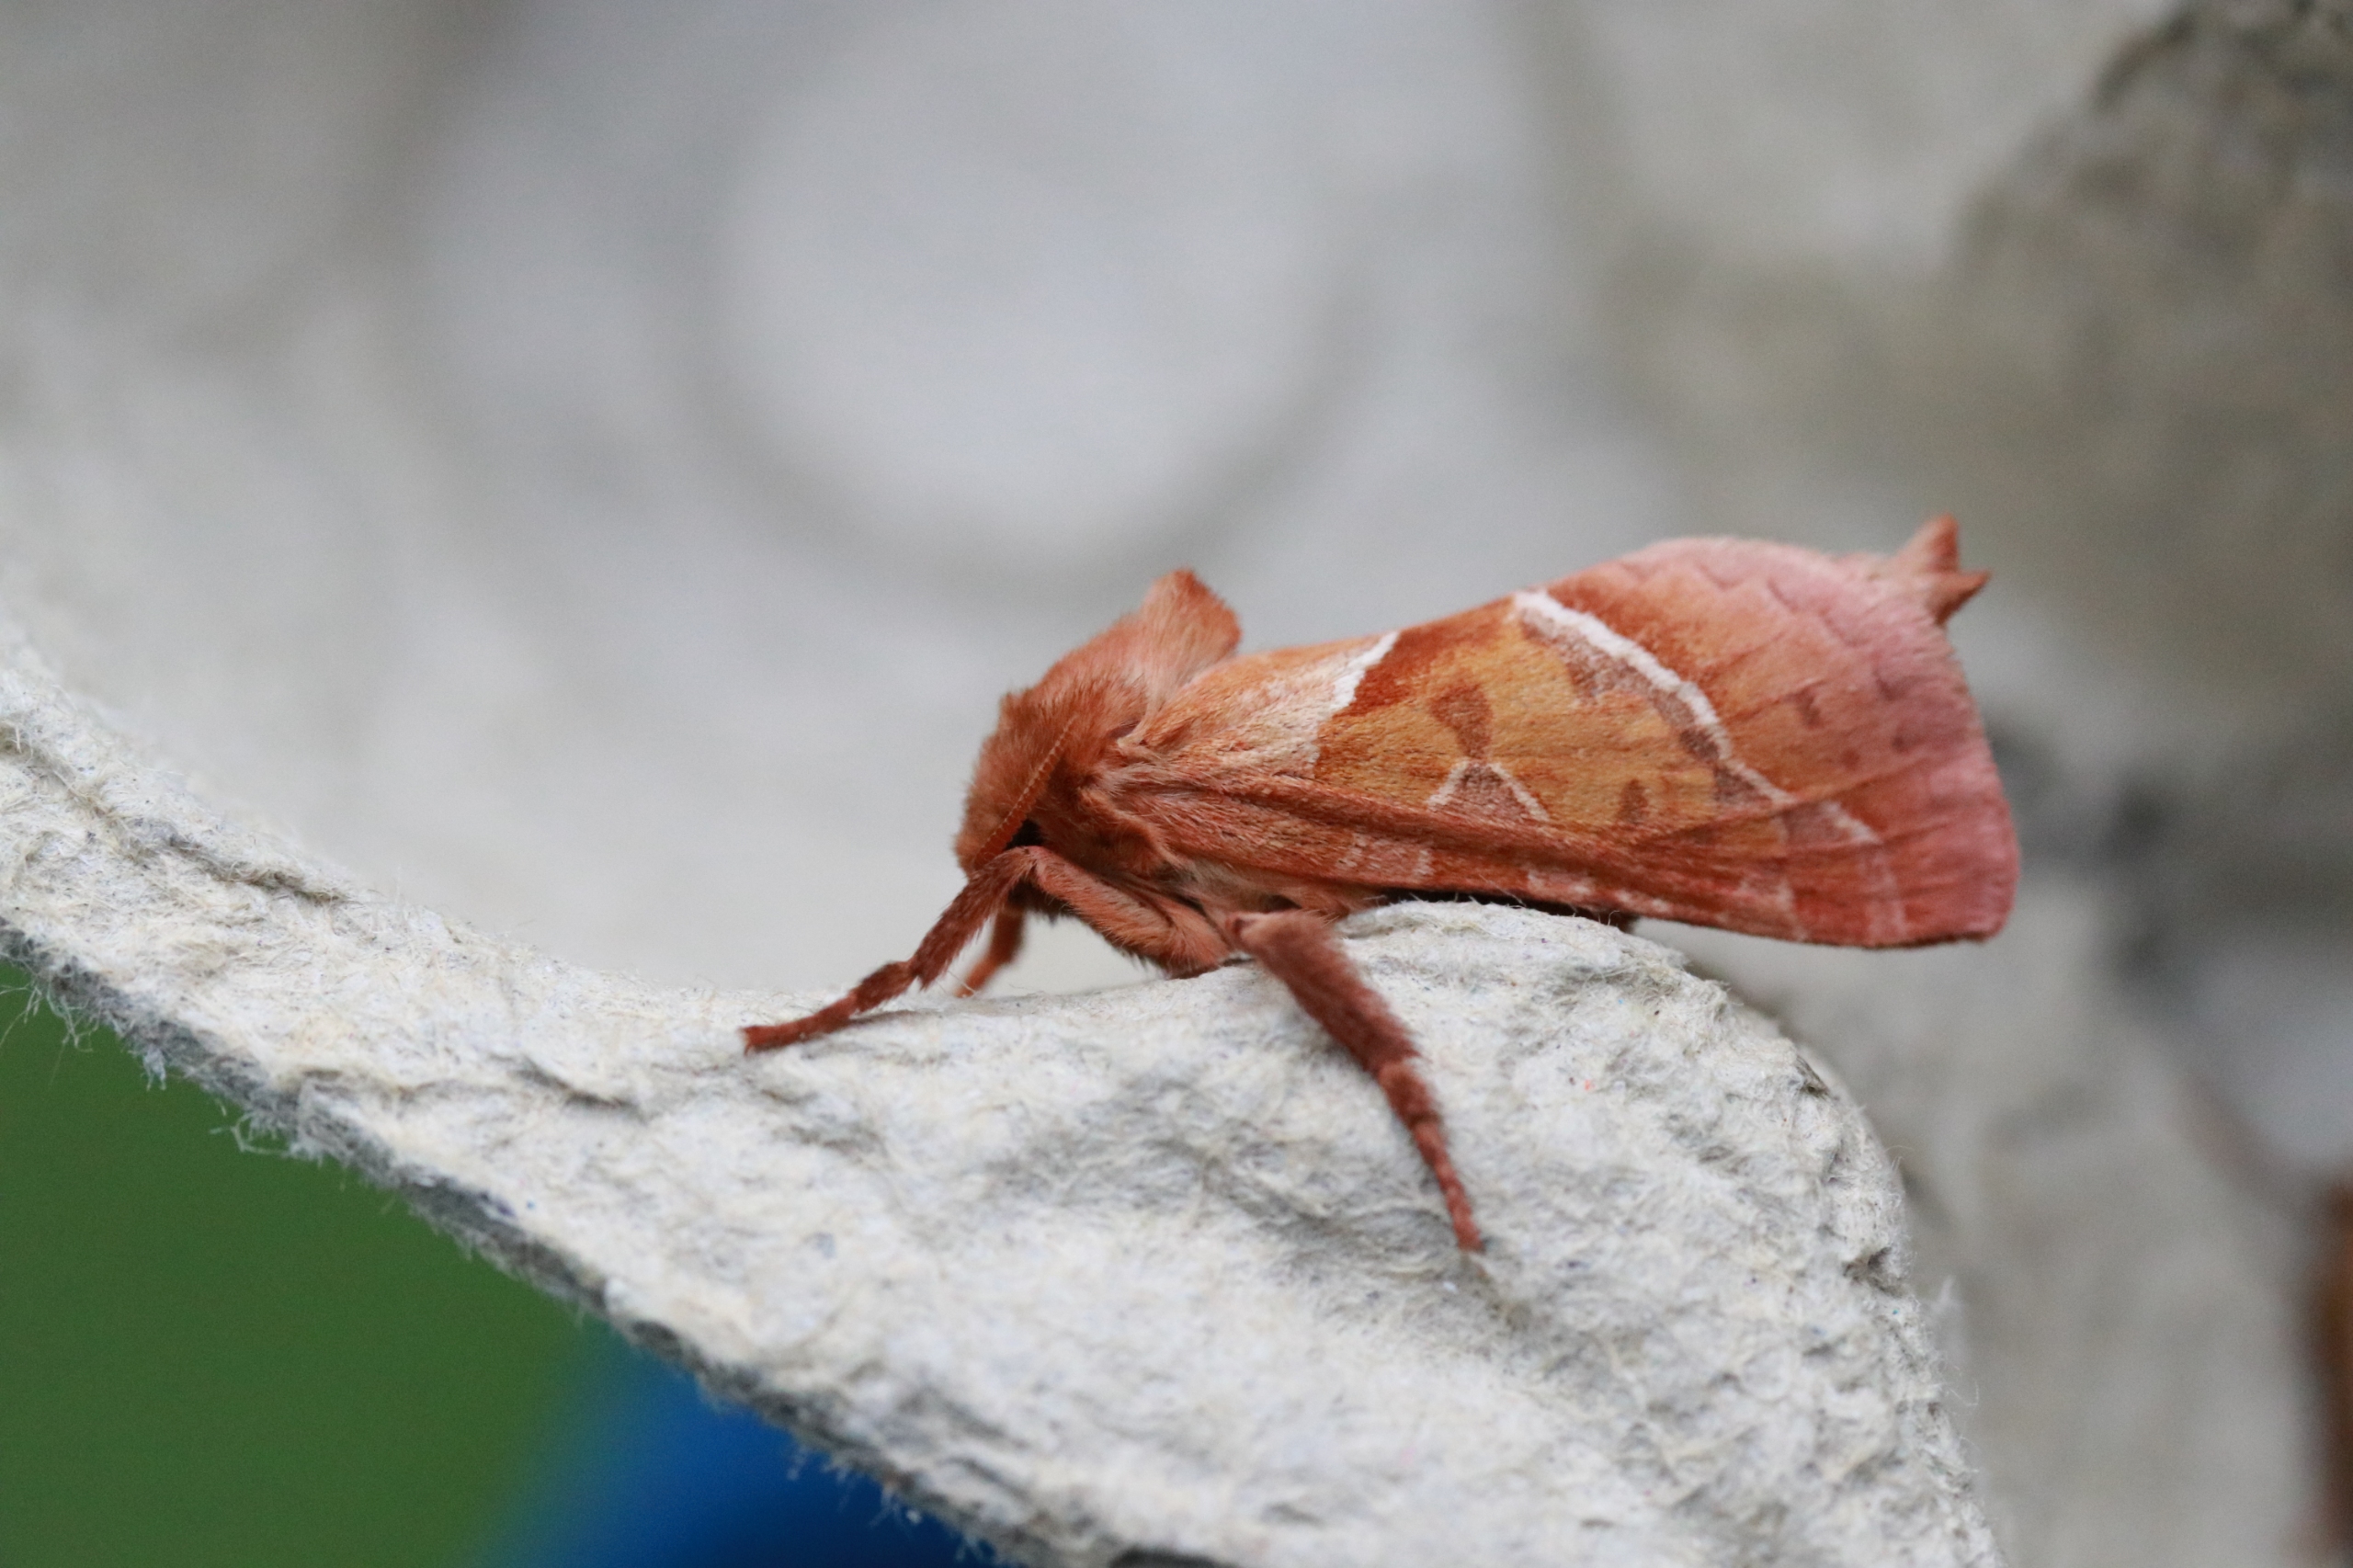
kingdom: Animalia
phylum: Arthropoda
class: Insecta
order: Lepidoptera
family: Hepialidae
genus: Triodia
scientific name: Triodia sylvina
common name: Skræpperodæder
